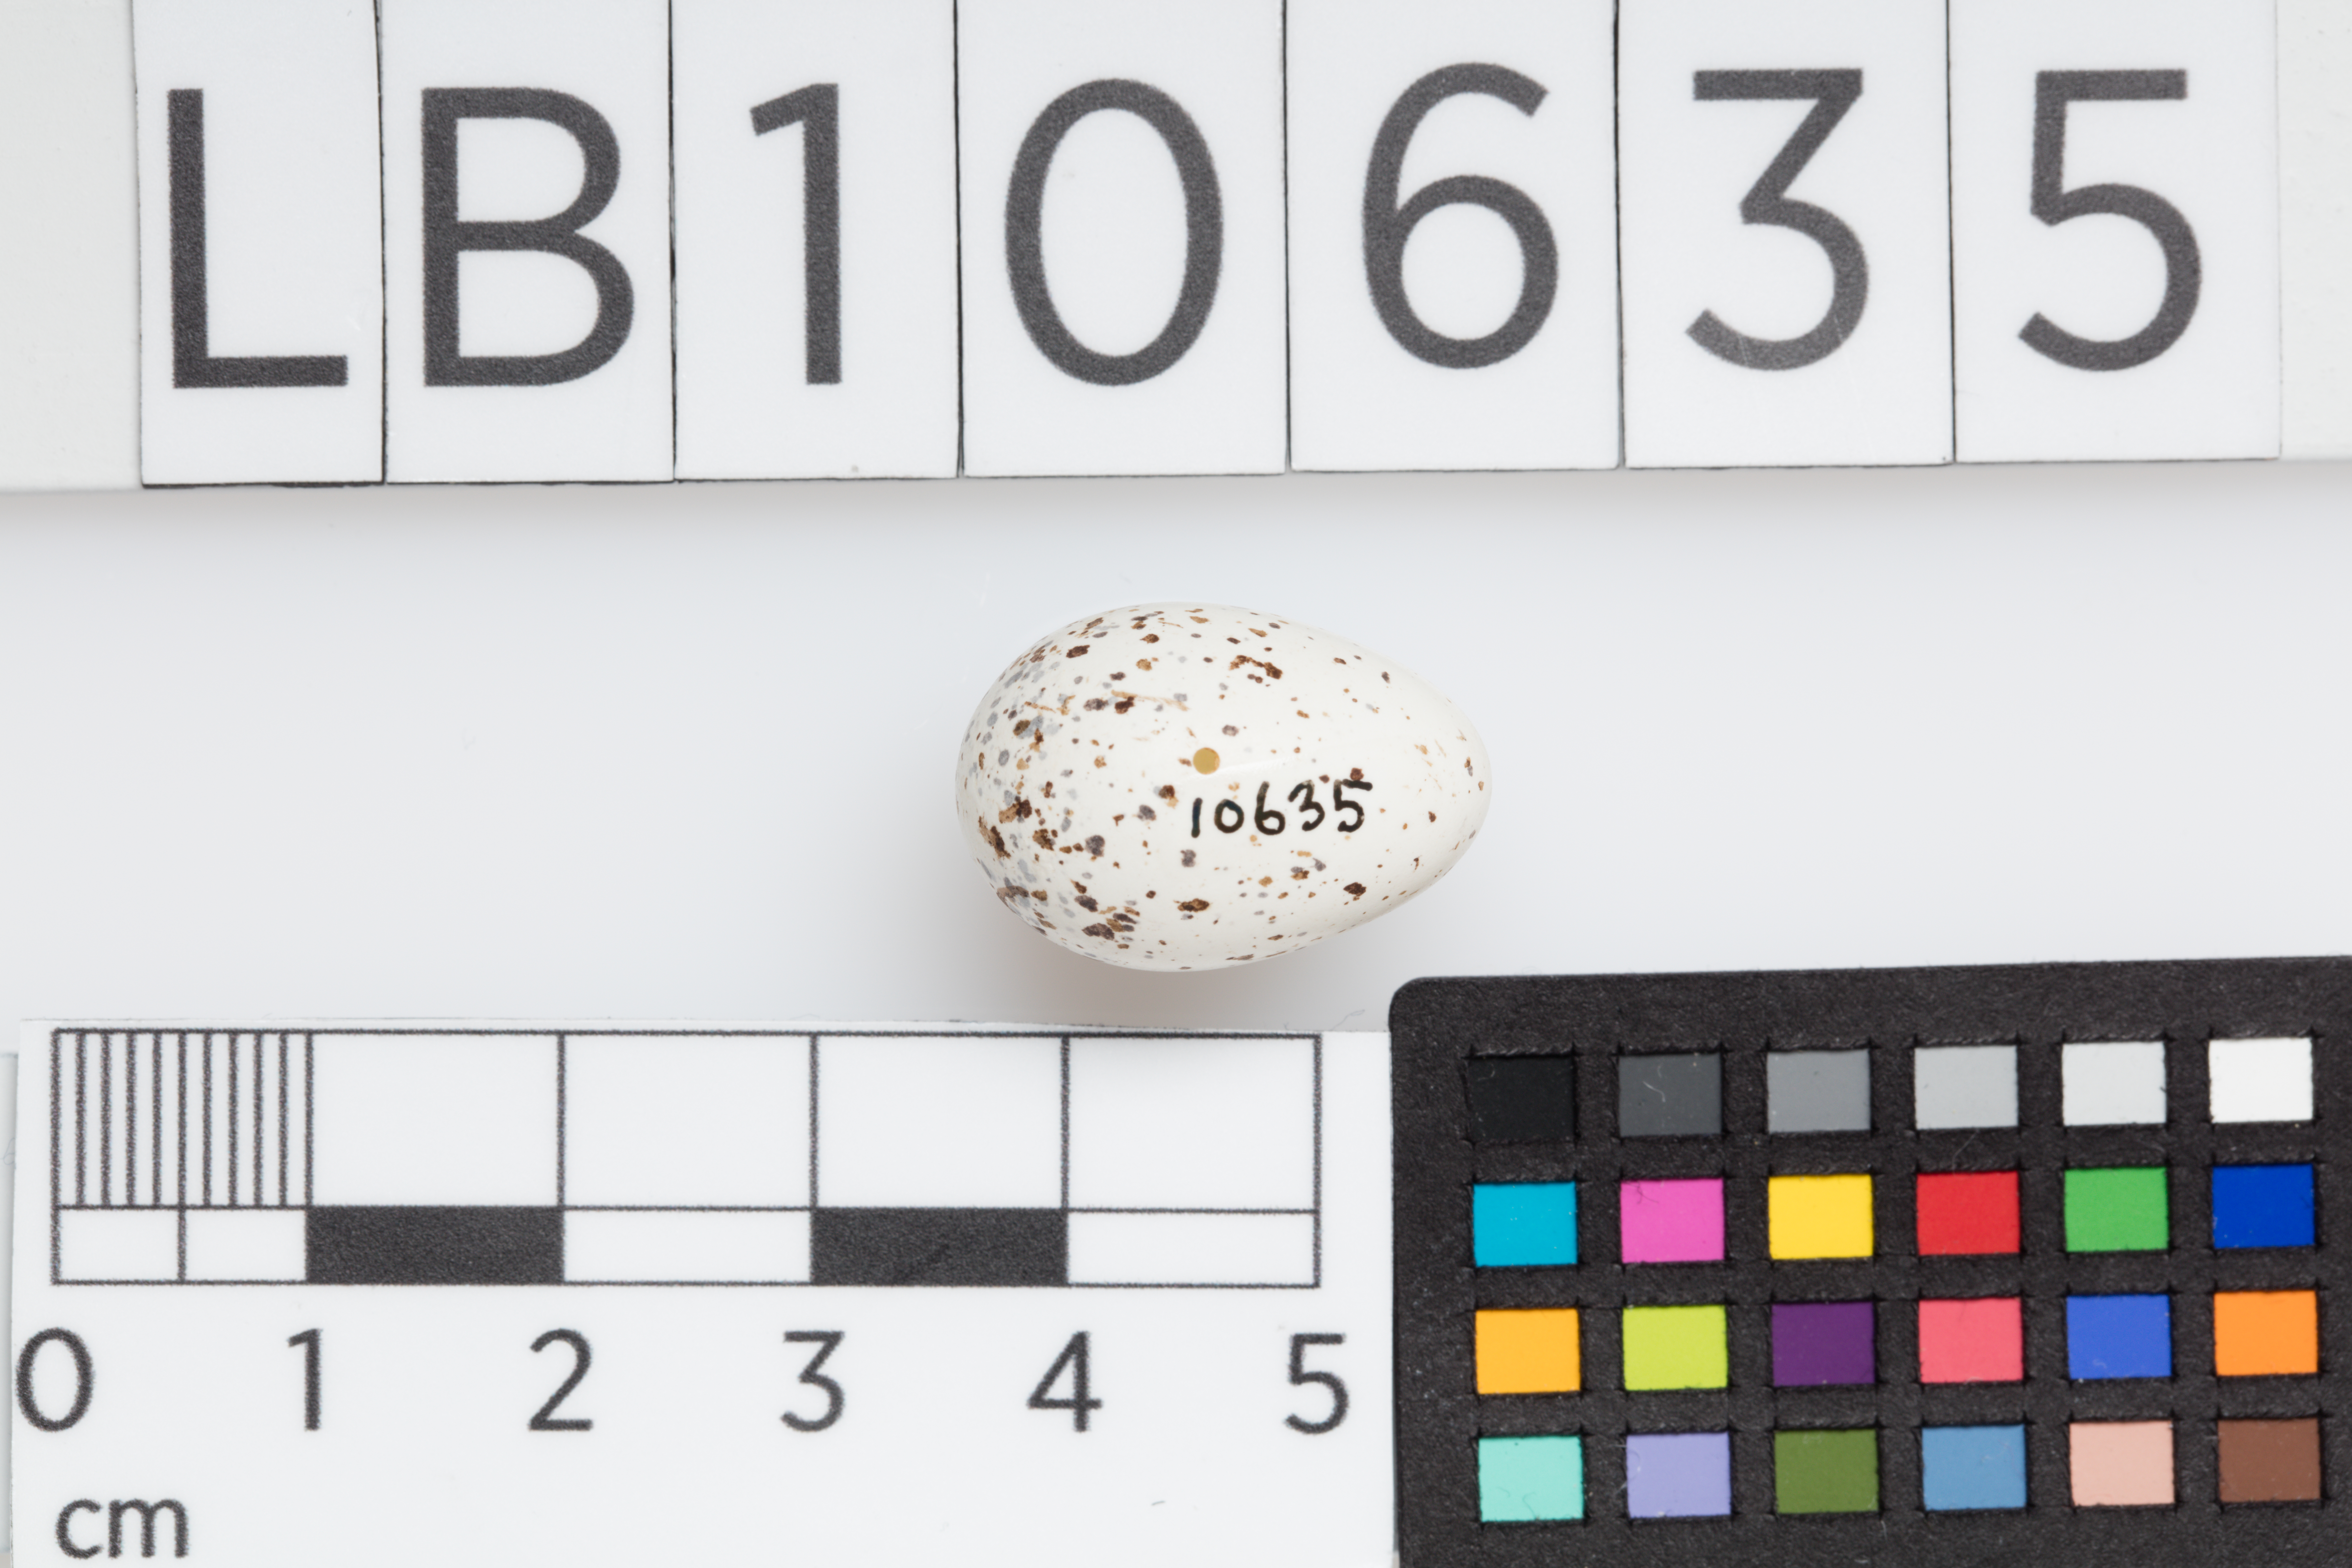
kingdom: Animalia
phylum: Chordata
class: Aves
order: Passeriformes
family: Hirundinidae
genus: Hirundo
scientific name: Hirundo rustica
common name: Barn swallow
